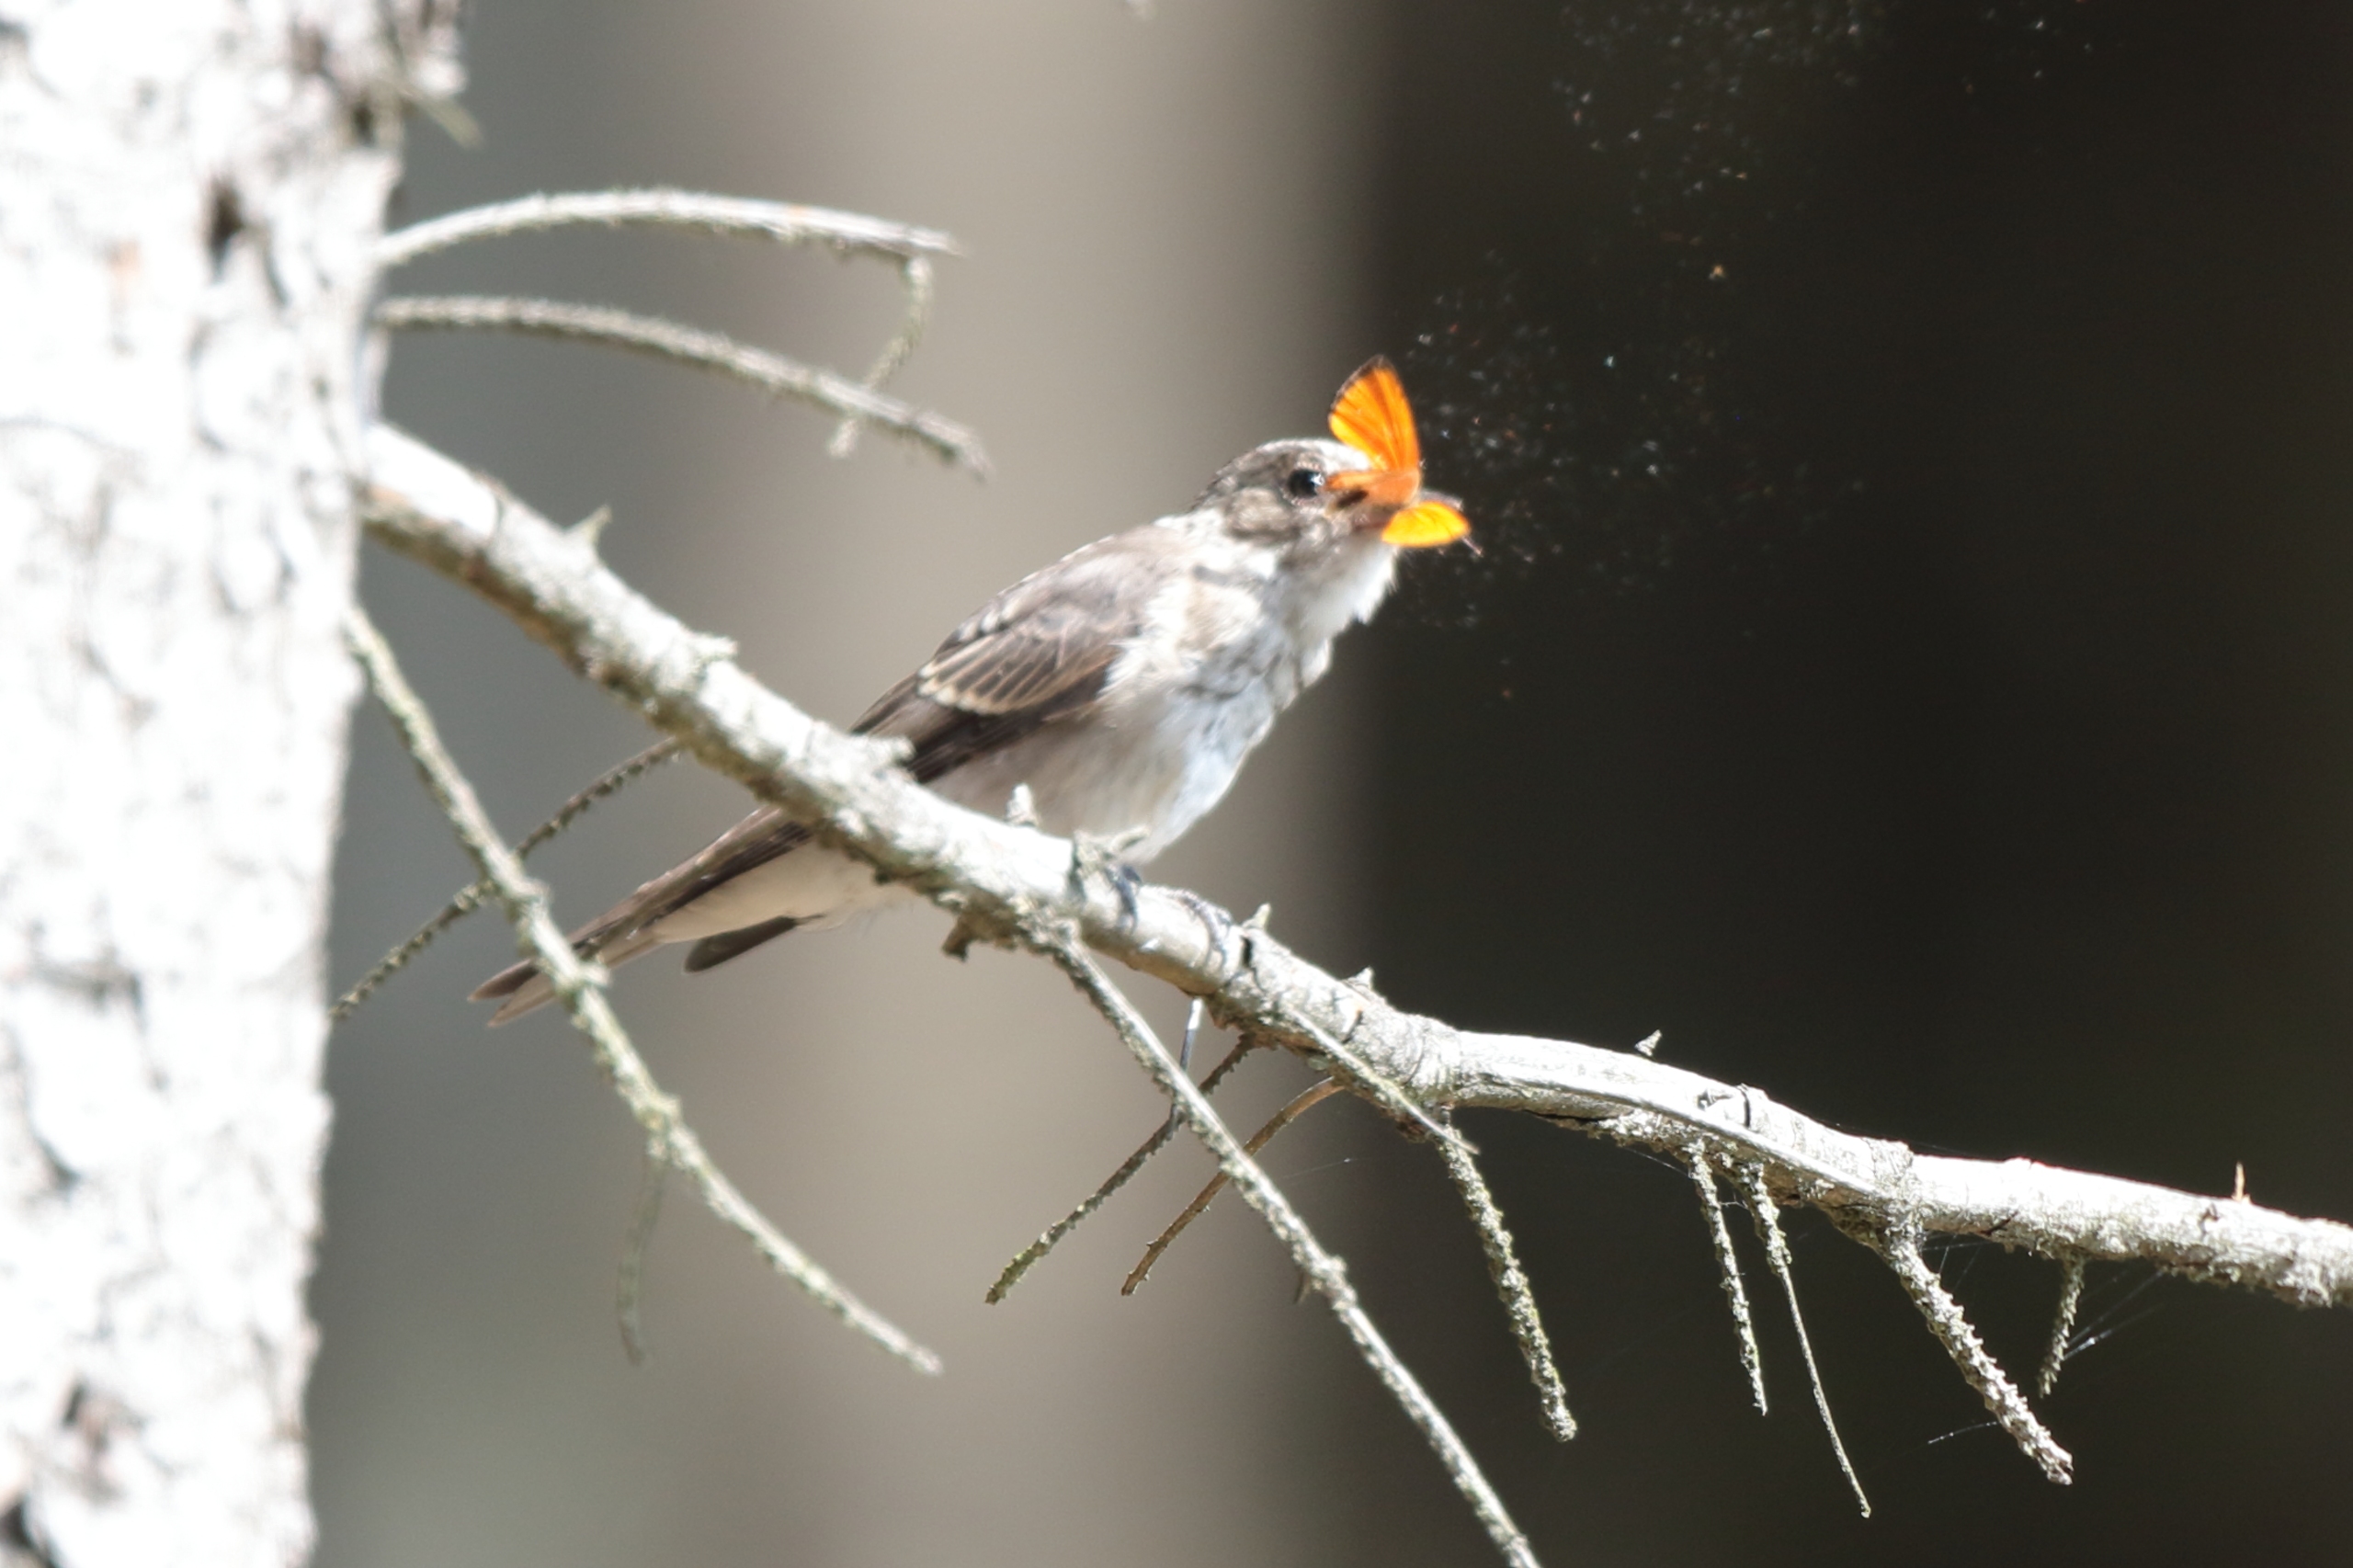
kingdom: Animalia
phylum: Arthropoda
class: Insecta
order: Lepidoptera
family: Lycaenidae
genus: Lycaena
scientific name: Lycaena virgaureae
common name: Dukatsommerfugl
